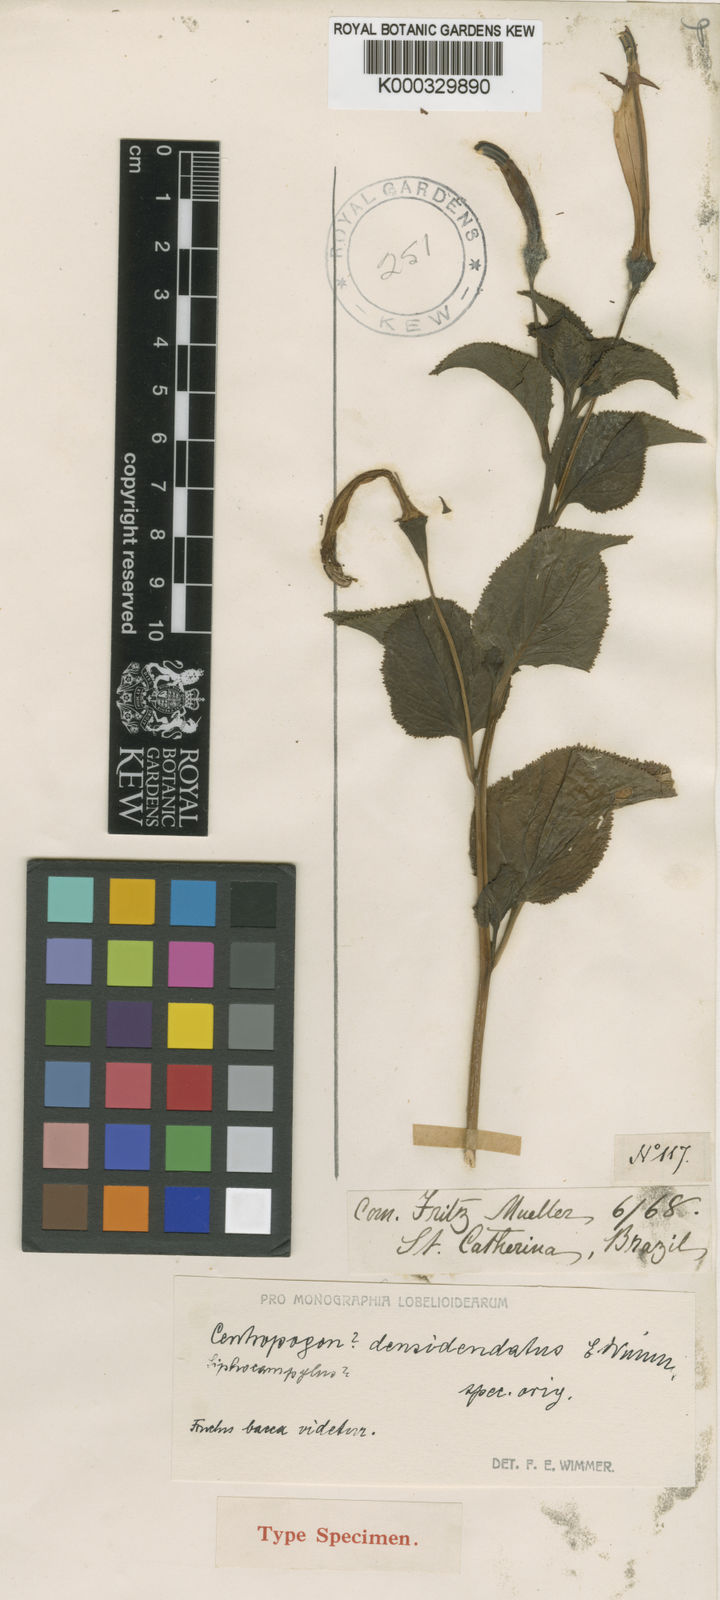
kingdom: Plantae
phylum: Tracheophyta
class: Magnoliopsida
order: Asterales
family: Campanulaceae
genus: Siphocampylus
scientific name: Siphocampylus densidentatus
